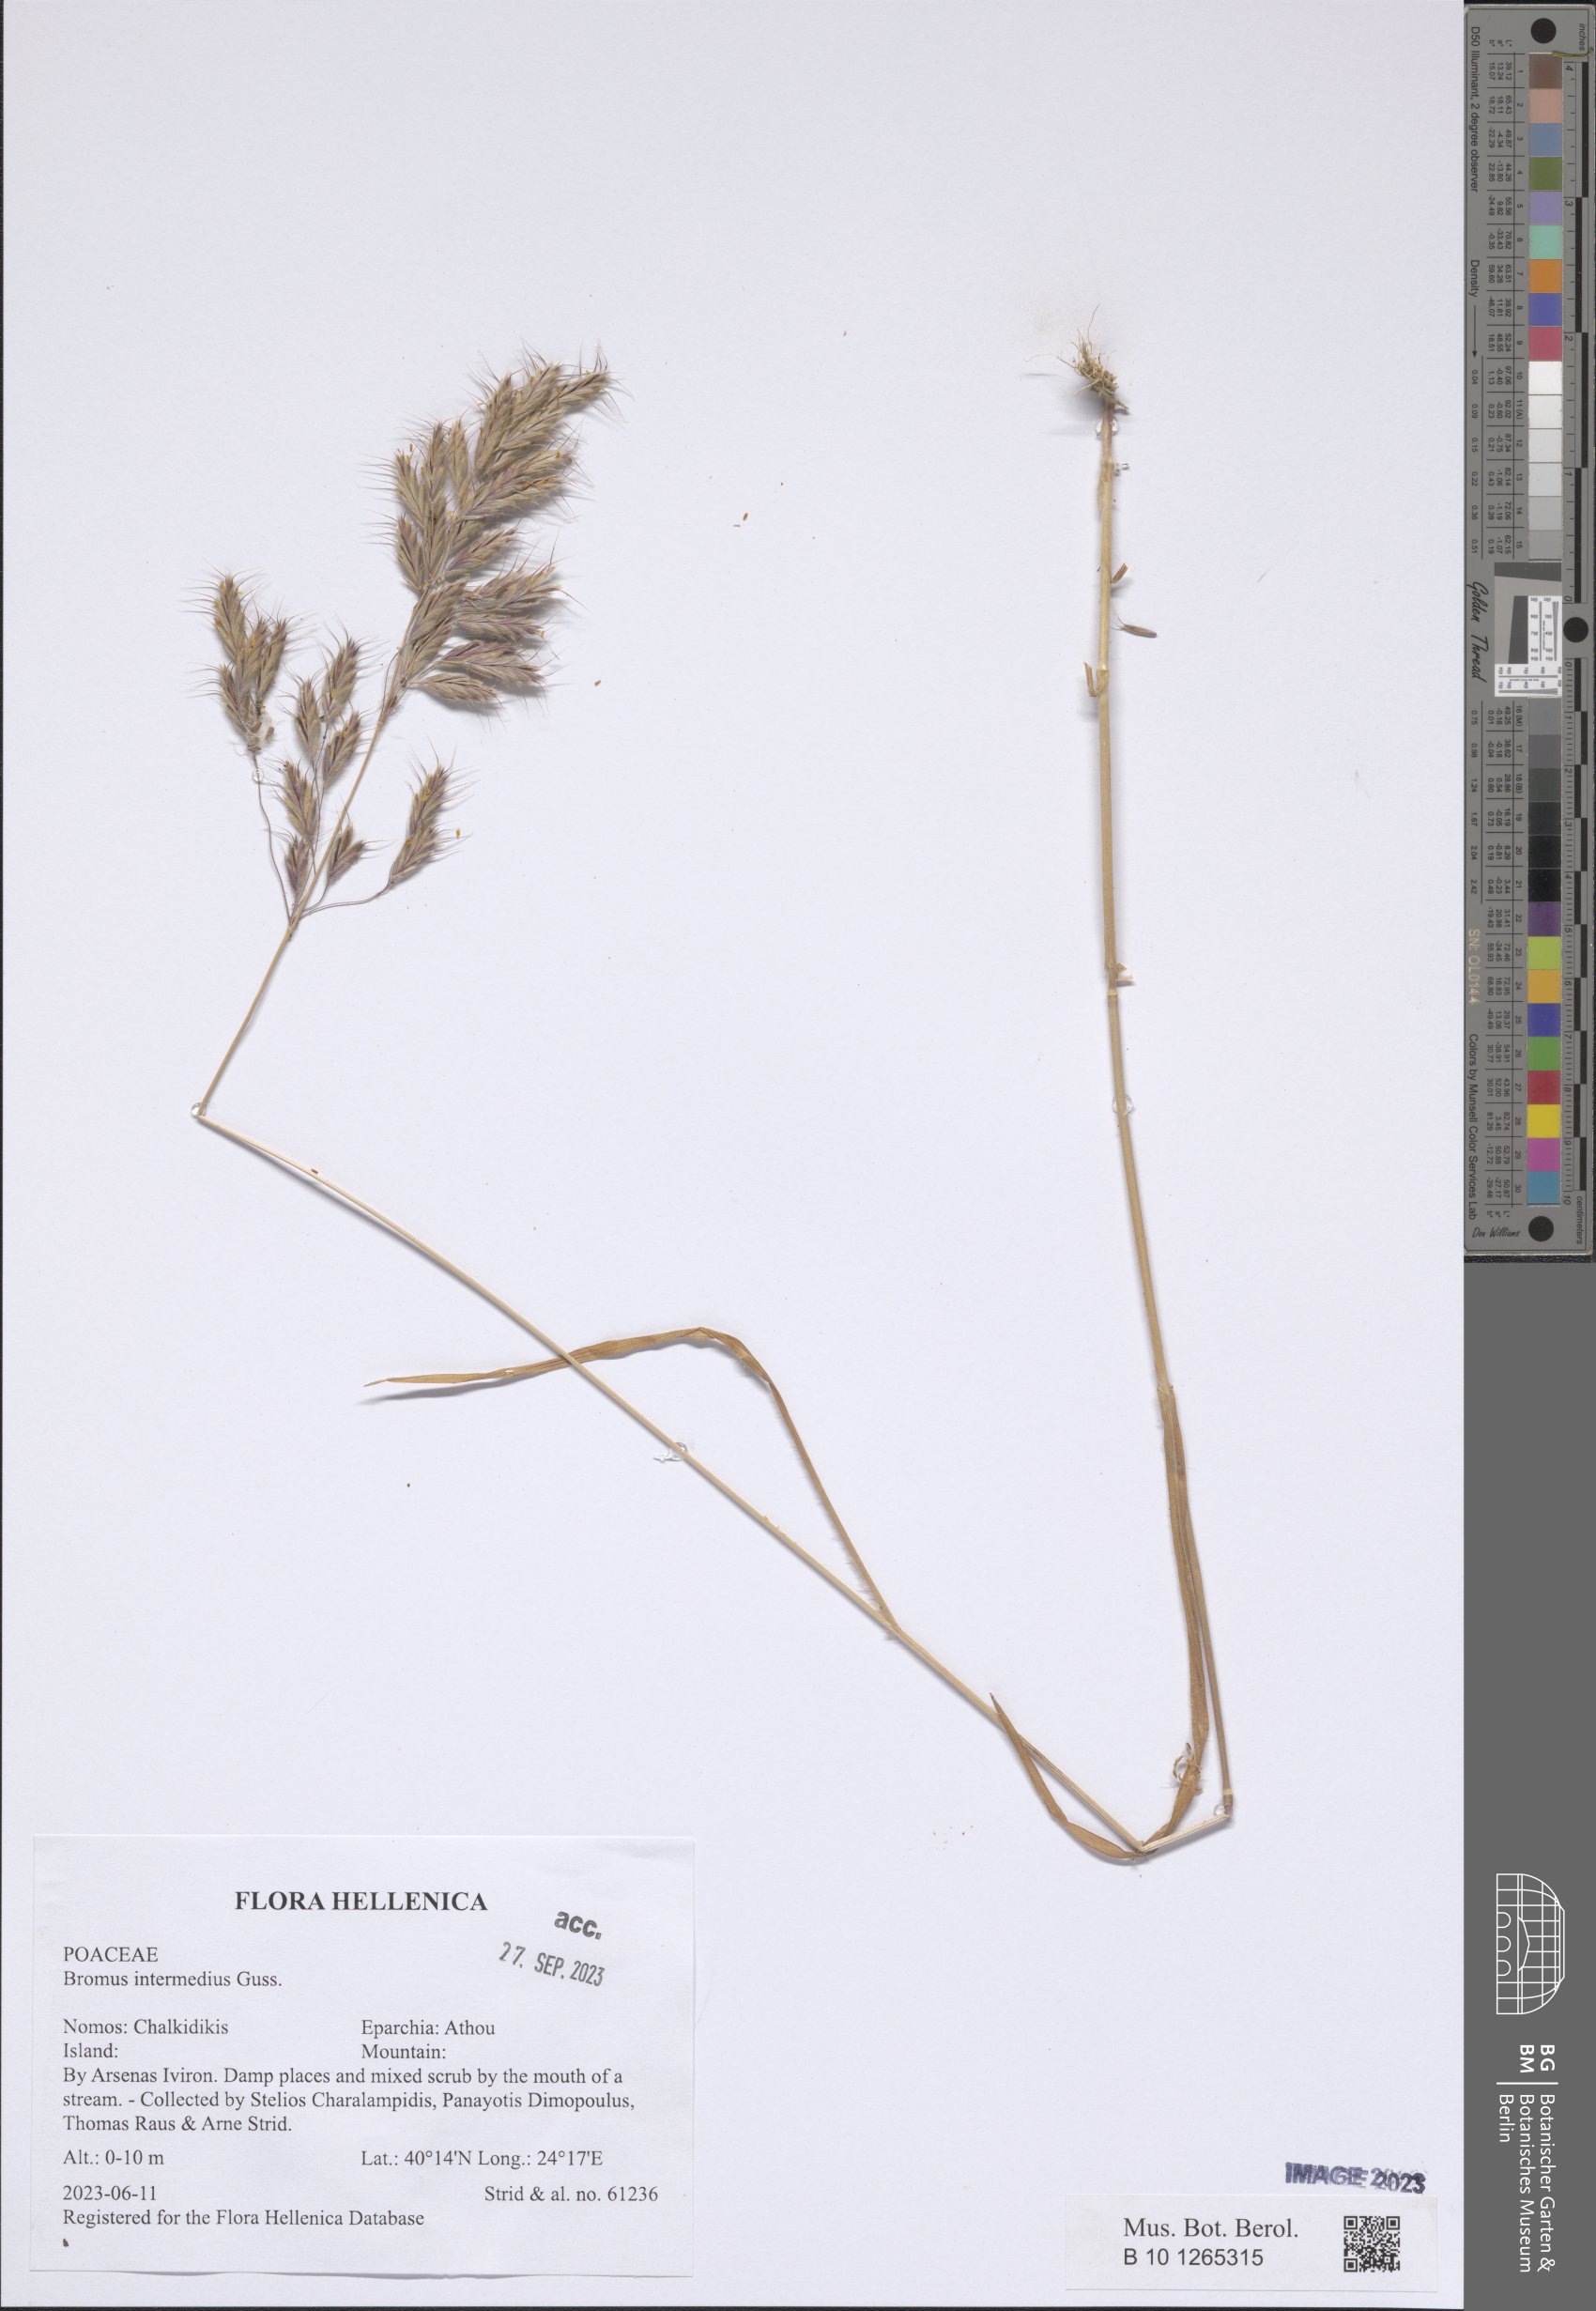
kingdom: Plantae
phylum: Tracheophyta
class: Liliopsida
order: Poales
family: Poaceae
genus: Bromus
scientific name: Bromus intermedius
